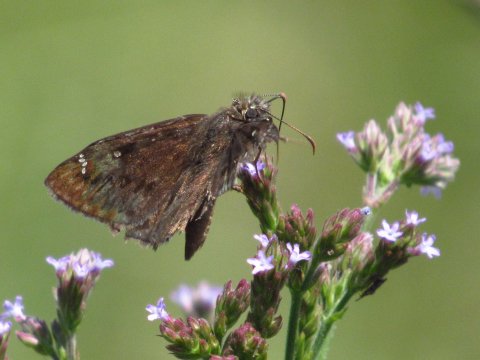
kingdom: Animalia
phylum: Arthropoda
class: Insecta
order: Lepidoptera
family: Hesperiidae
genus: Gesta
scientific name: Gesta
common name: Horace's Duskywing
